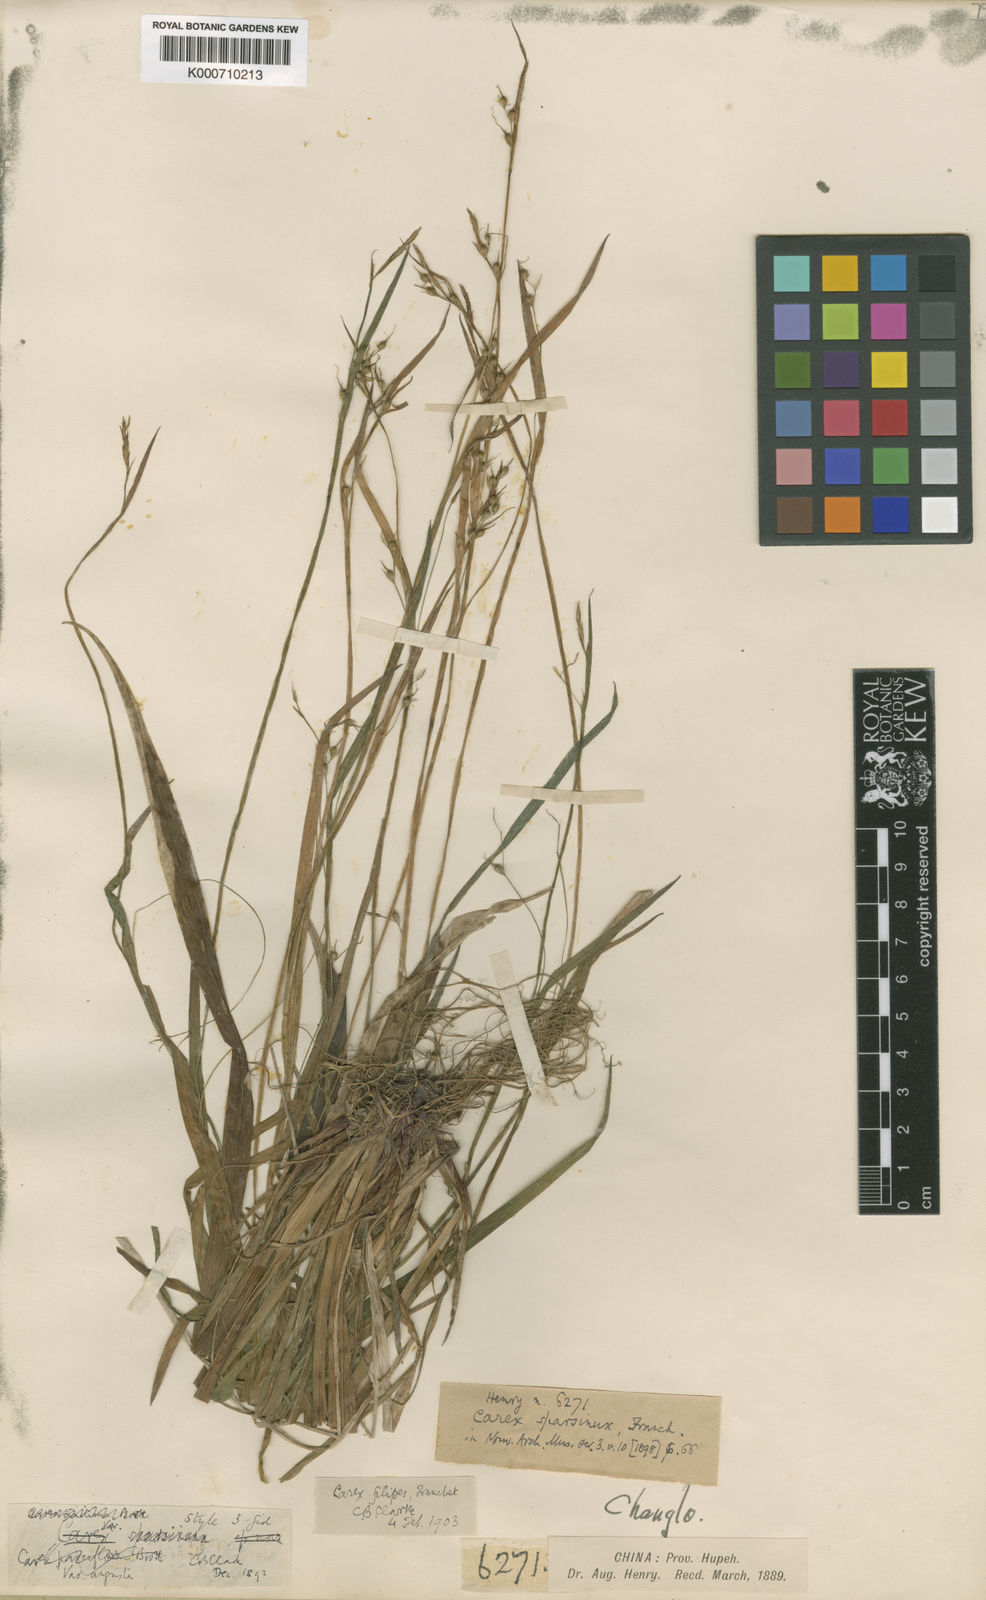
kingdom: Plantae
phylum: Tracheophyta
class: Liliopsida
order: Poales
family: Cyperaceae
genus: Carex
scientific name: Carex filipes
